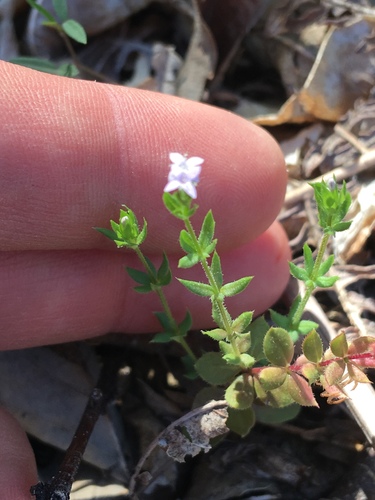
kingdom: Plantae
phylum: Tracheophyta
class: Magnoliopsida
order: Gentianales
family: Rubiaceae
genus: Sherardia
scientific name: Sherardia arvensis
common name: Field madder
